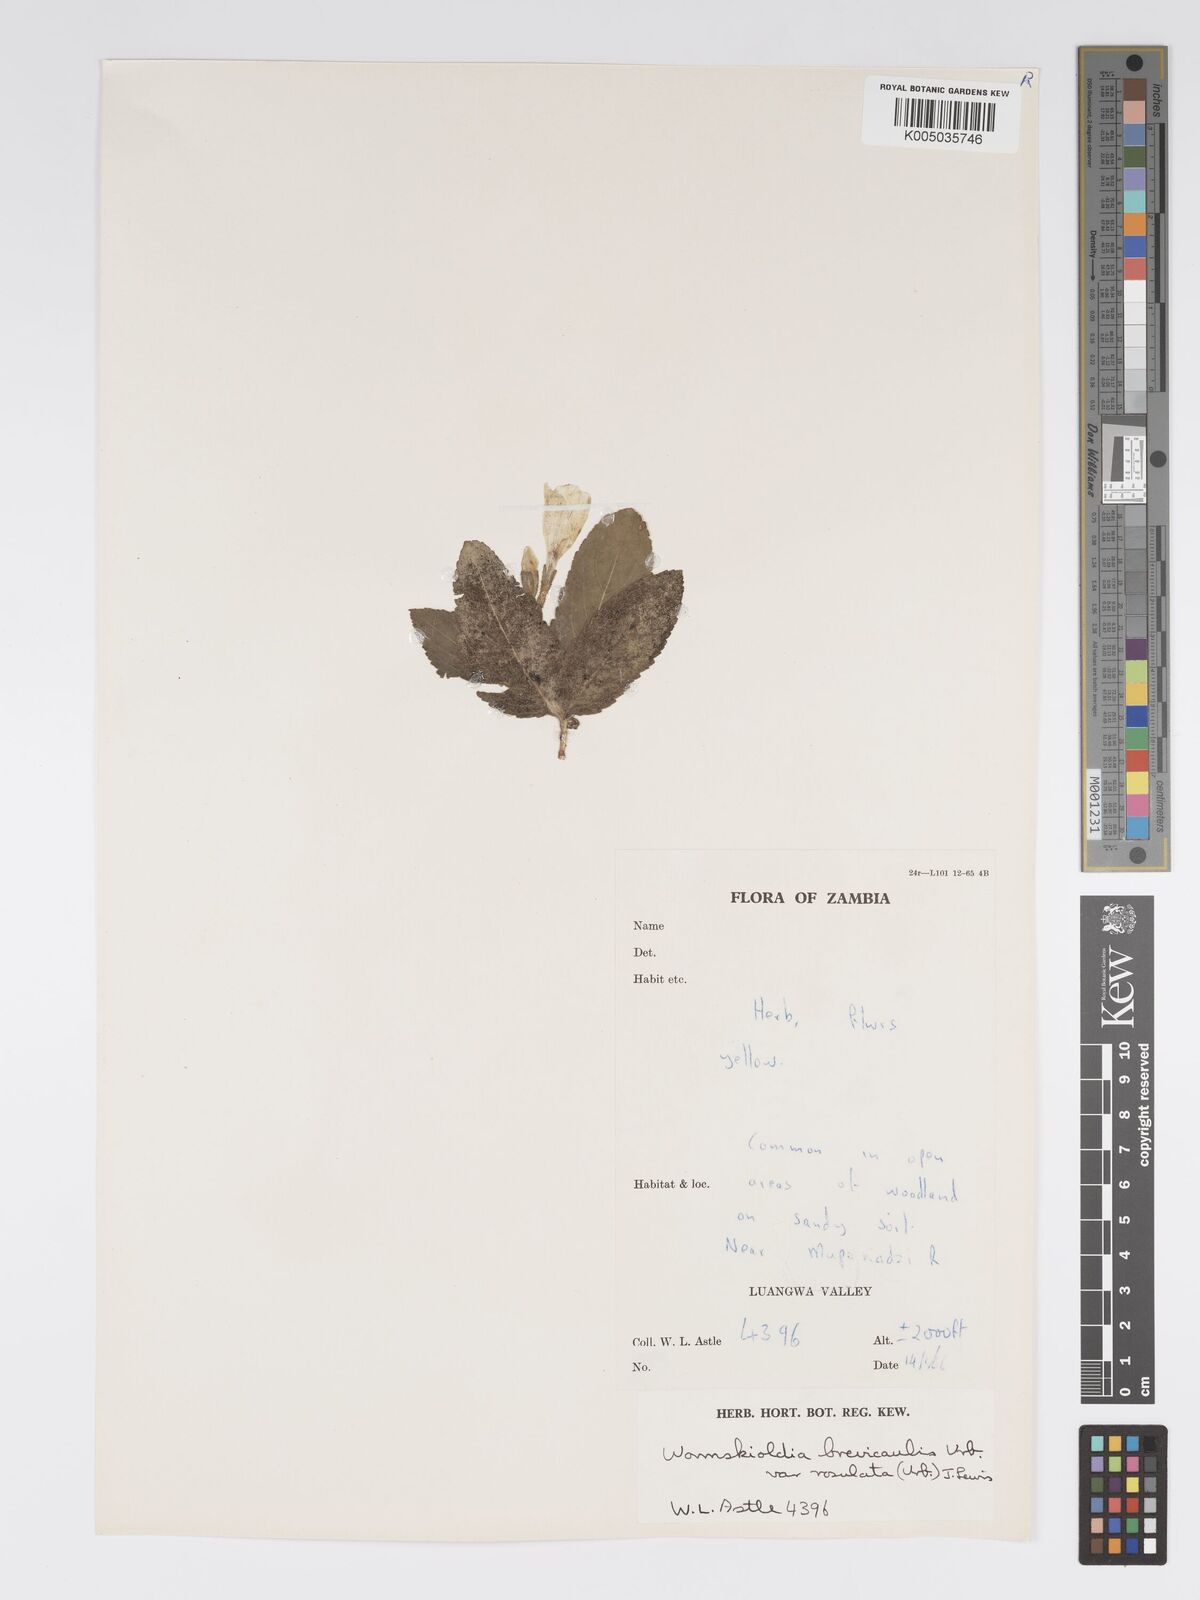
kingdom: Plantae
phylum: Tracheophyta
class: Magnoliopsida
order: Malpighiales
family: Turneraceae
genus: Tricliceras
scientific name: Tricliceras brevicaule
